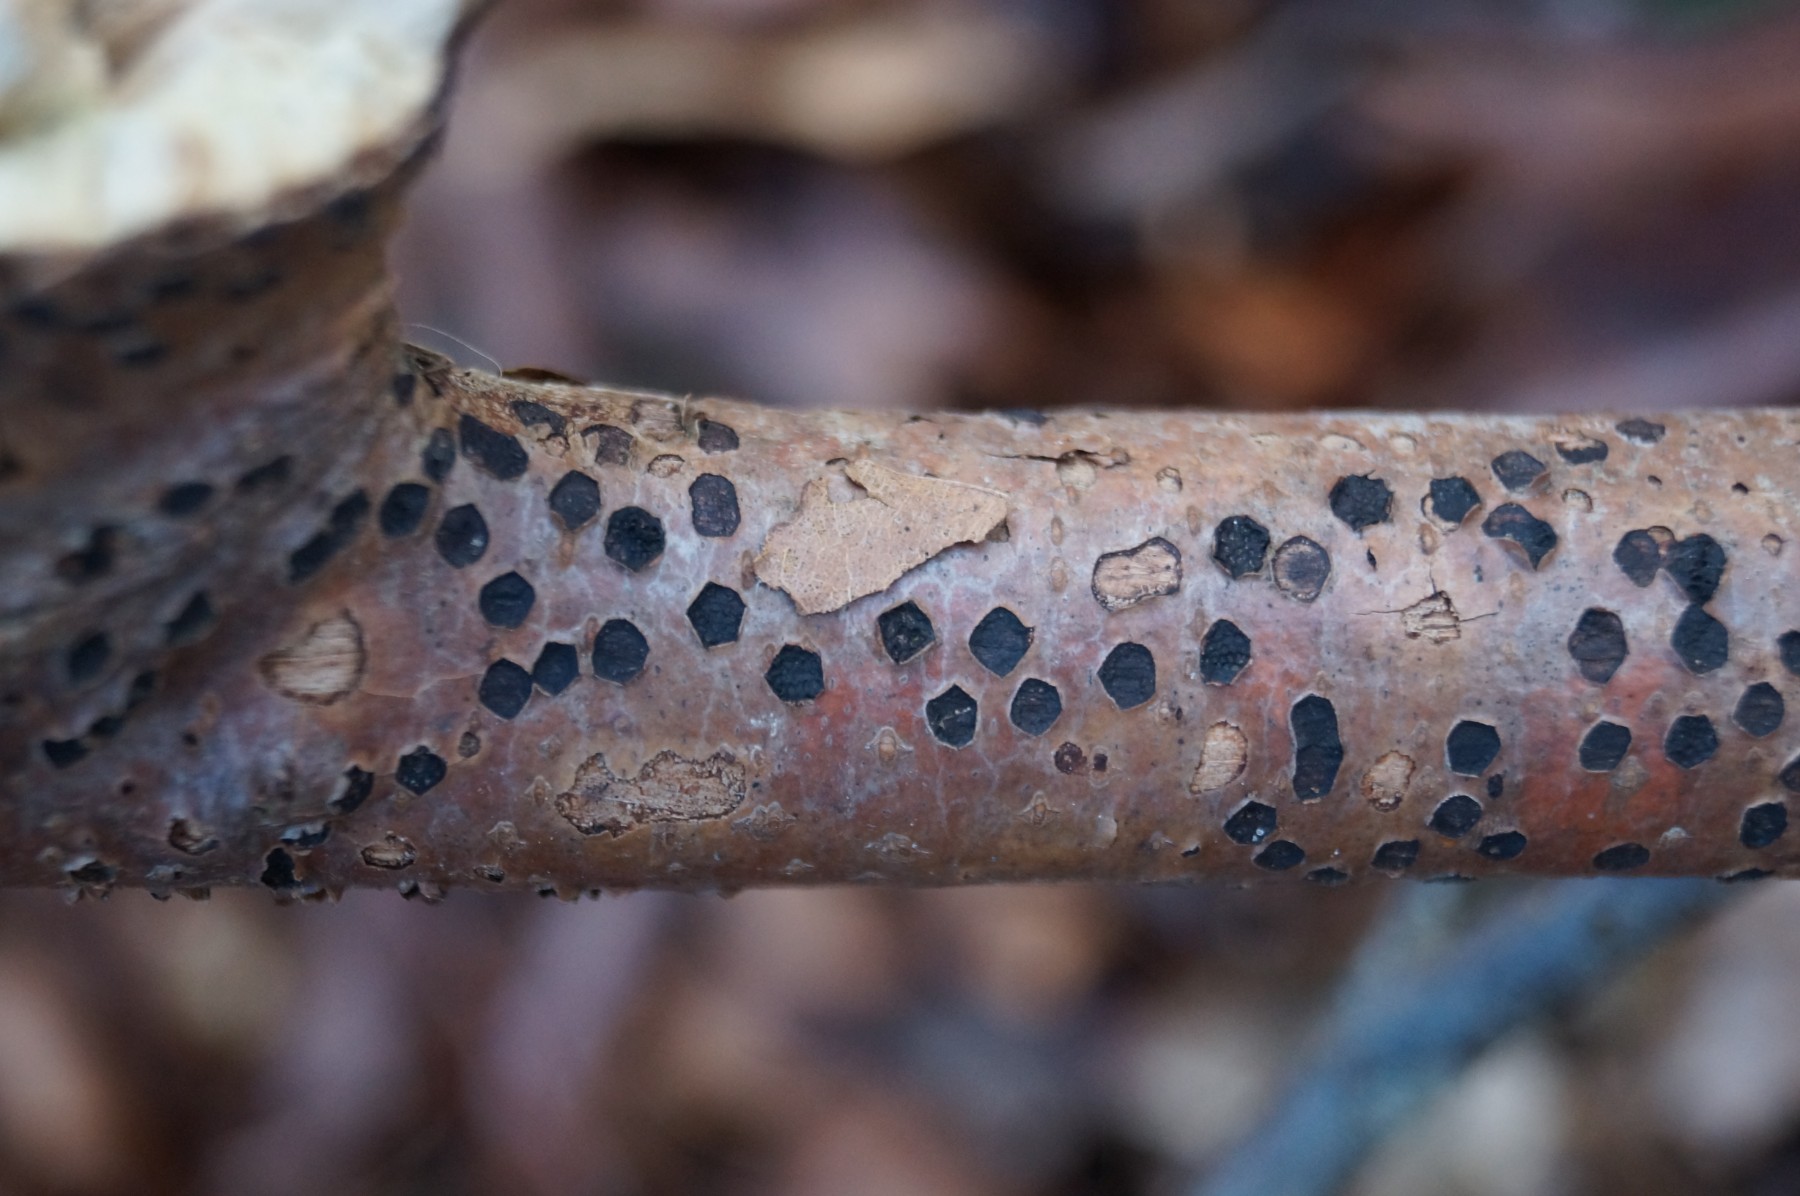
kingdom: Fungi
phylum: Ascomycota
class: Sordariomycetes
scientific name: Sordariomycetes
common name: kernesvampklassen
